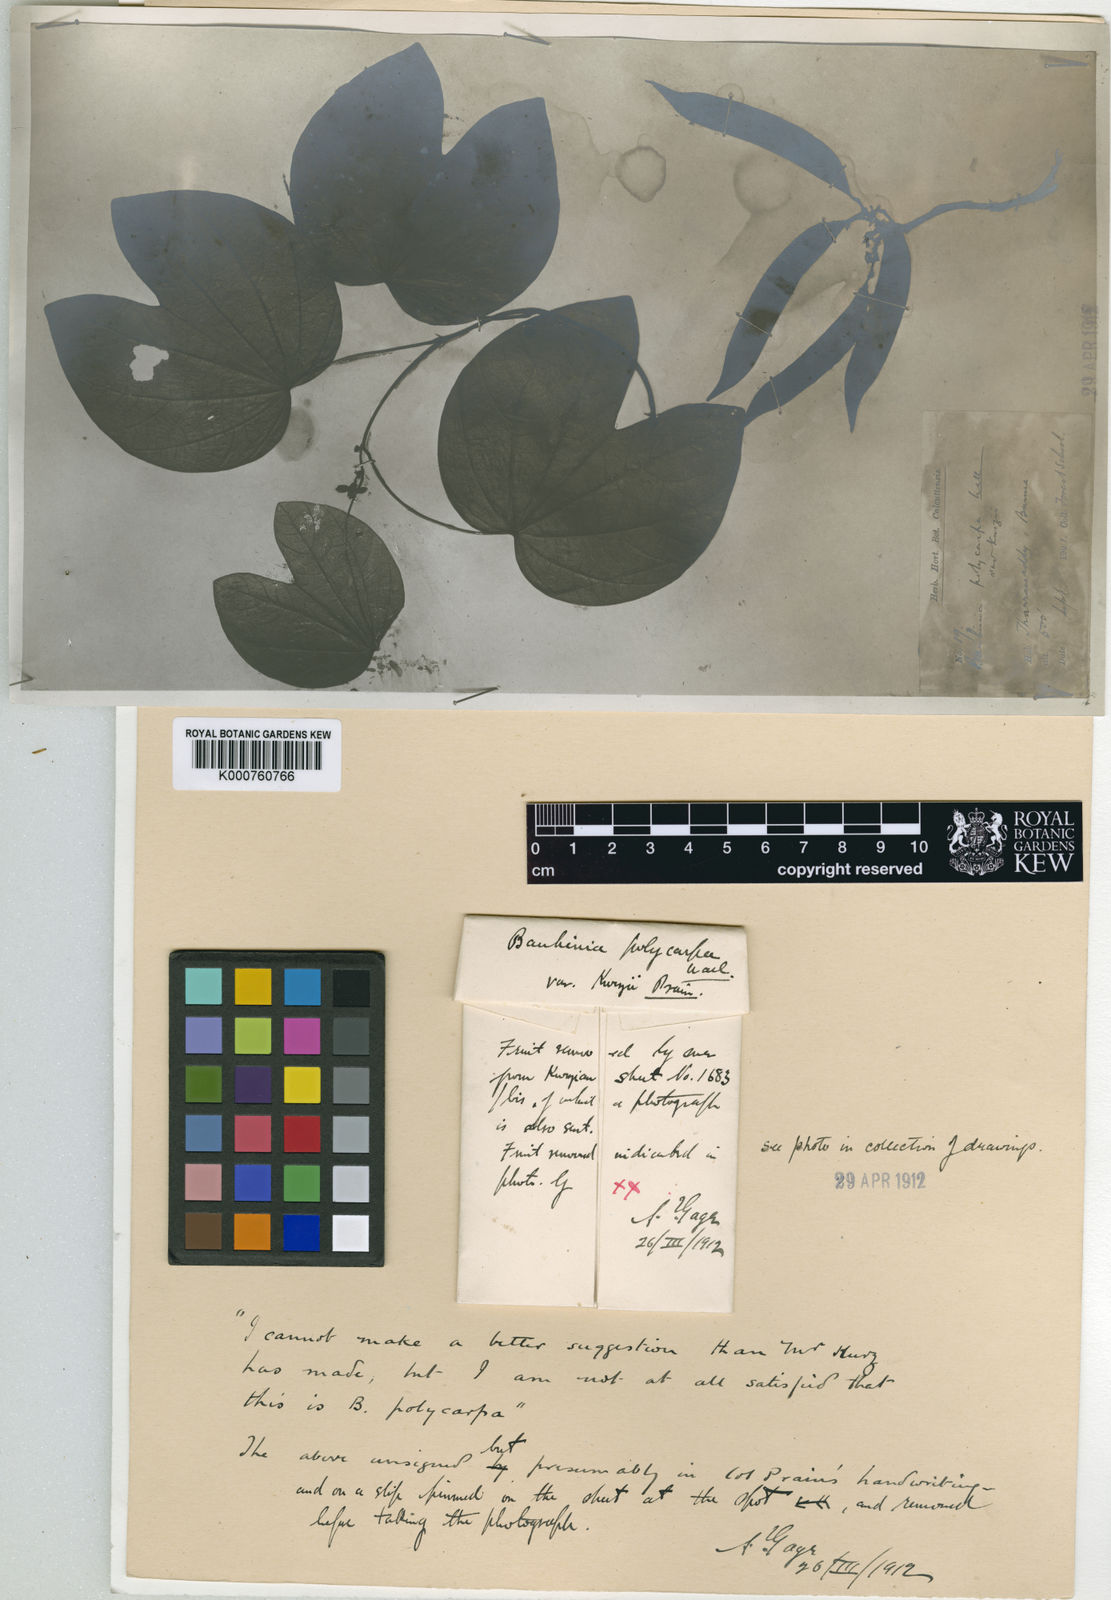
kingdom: Plantae
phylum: Tracheophyta
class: Magnoliopsida
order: Fabales
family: Fabaceae
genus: Bauhinia
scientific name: Bauhinia purpurea
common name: Butterfly-tree
